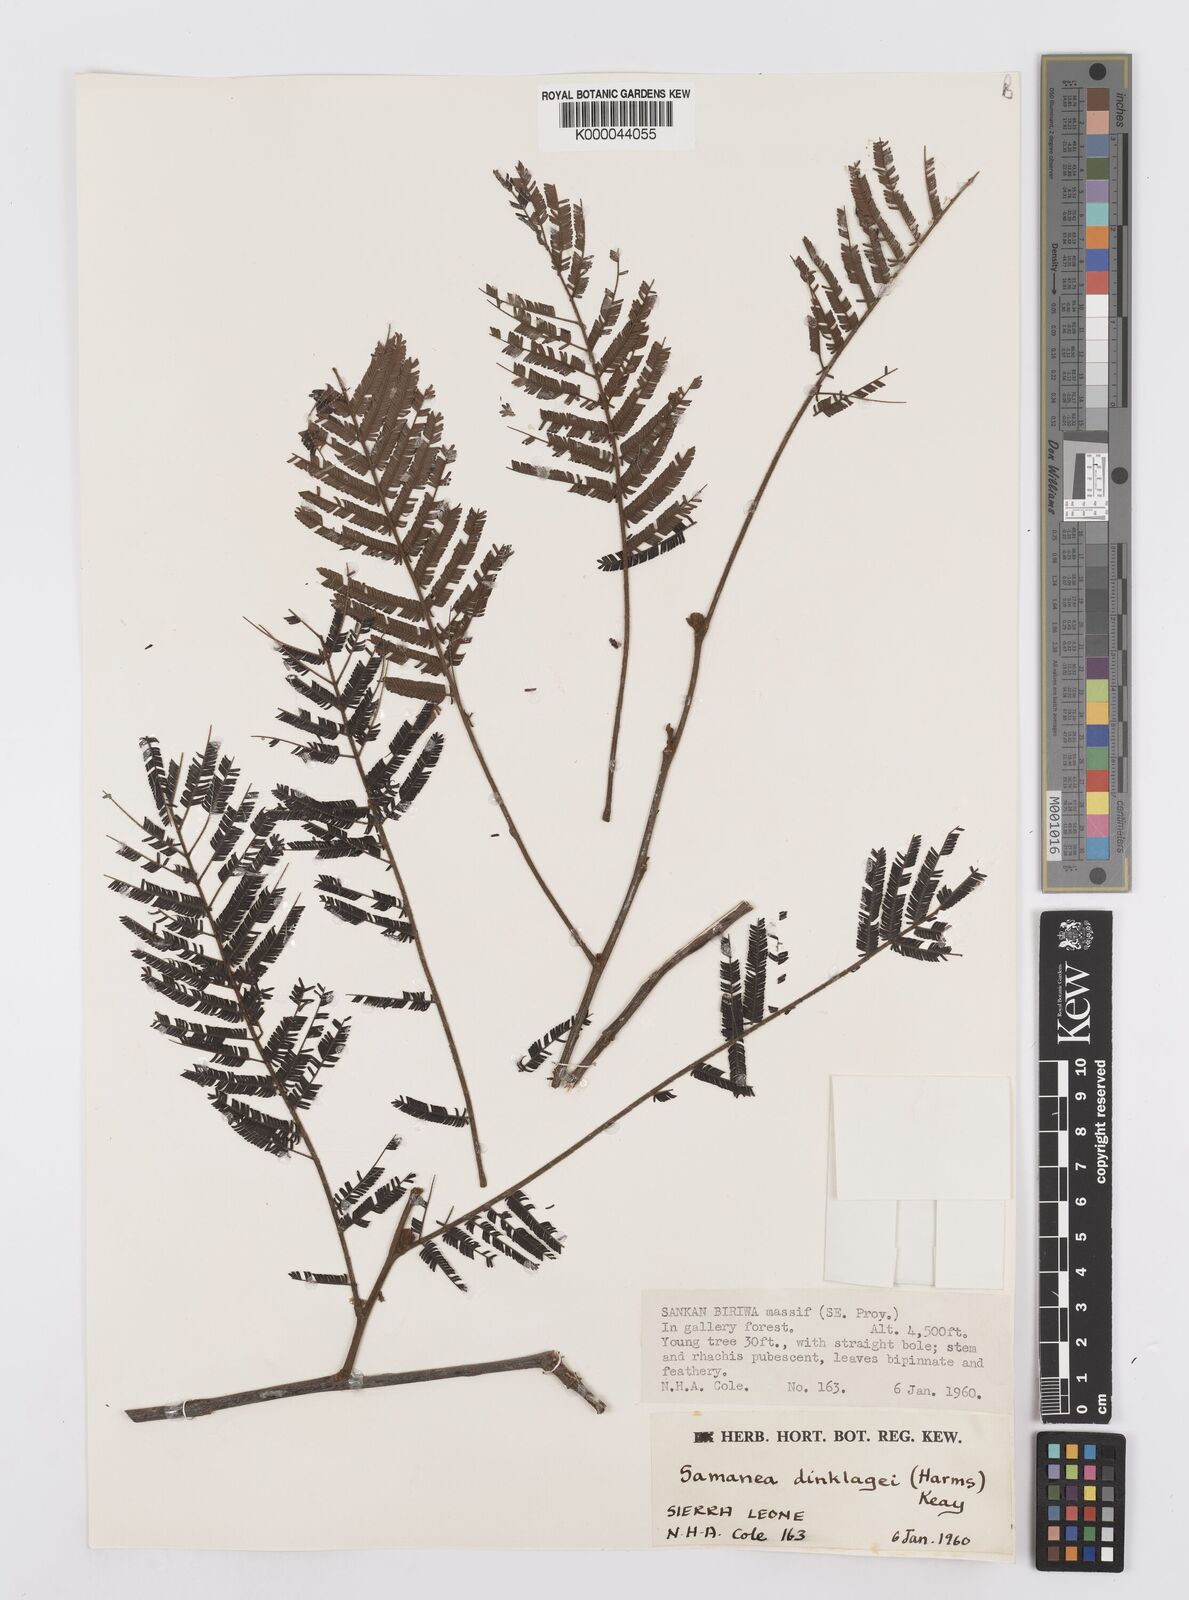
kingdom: Plantae
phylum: Tracheophyta
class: Magnoliopsida
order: Fabales
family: Fabaceae
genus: Albizia
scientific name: Albizia dinklagei
